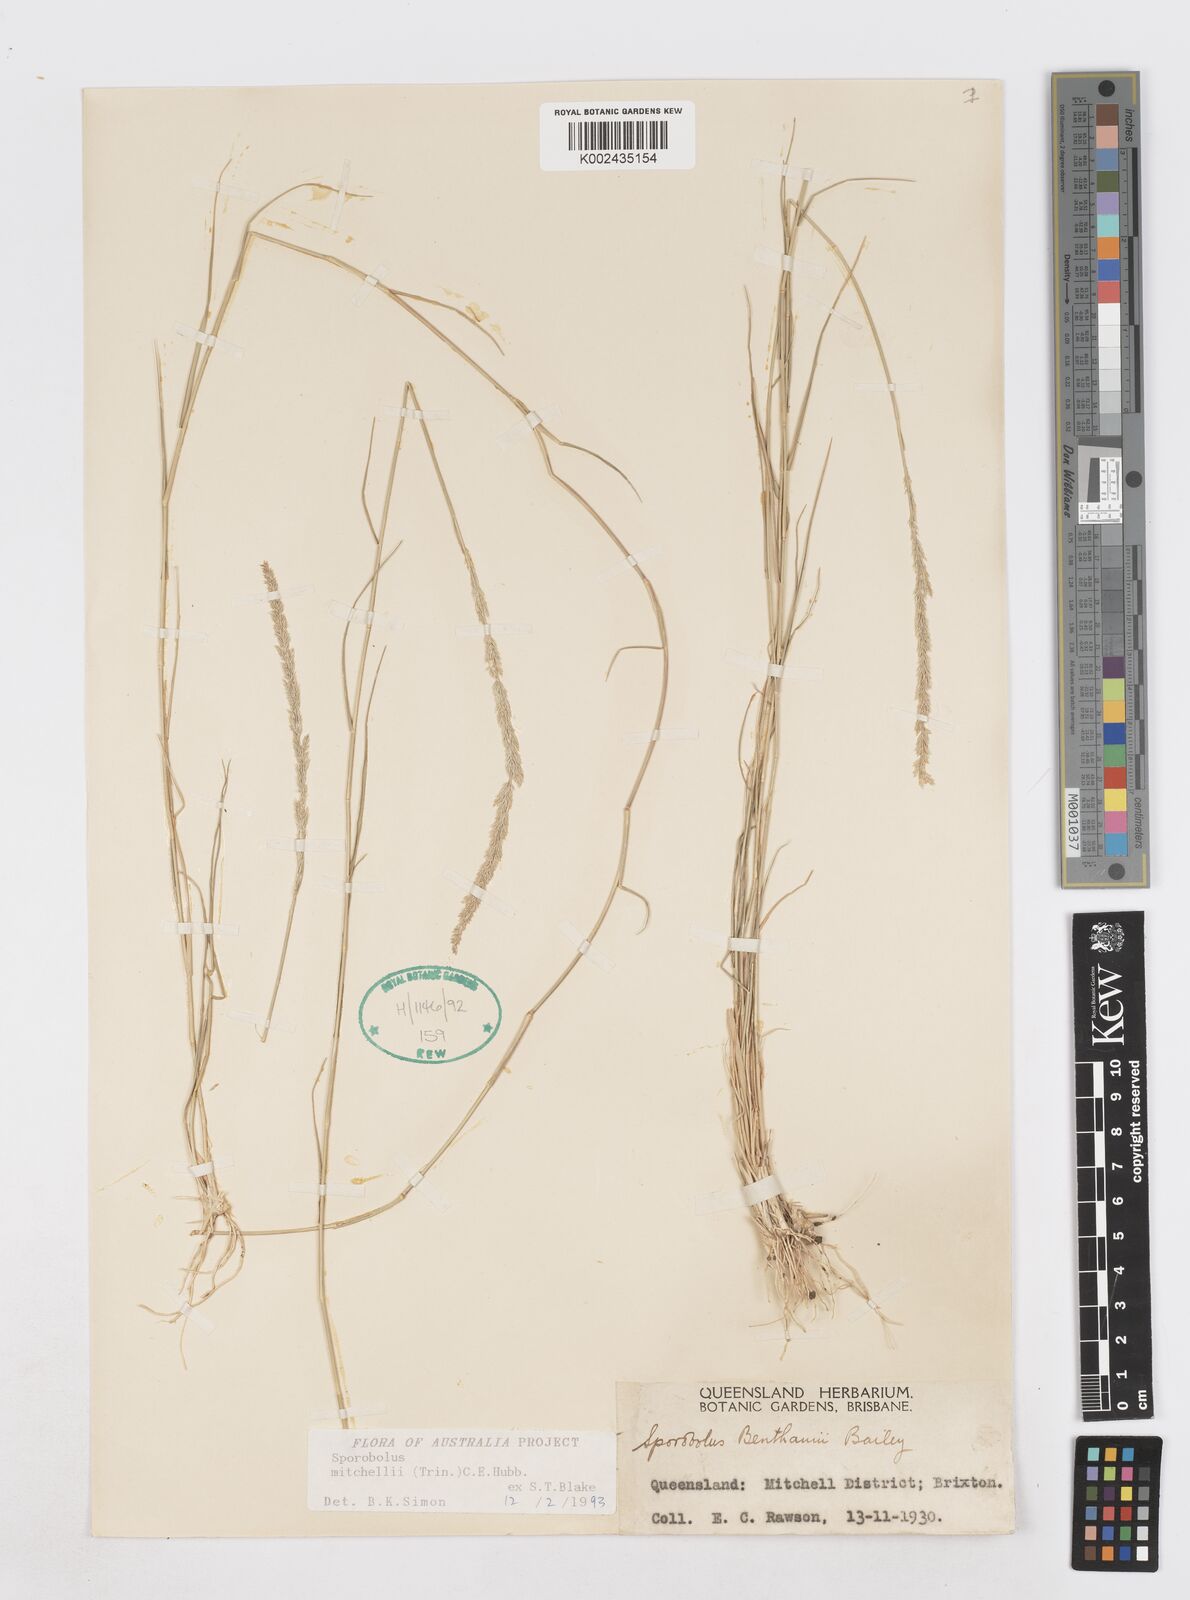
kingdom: Plantae
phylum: Tracheophyta
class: Liliopsida
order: Poales
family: Poaceae
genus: Sporobolus
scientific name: Sporobolus mitchellii
